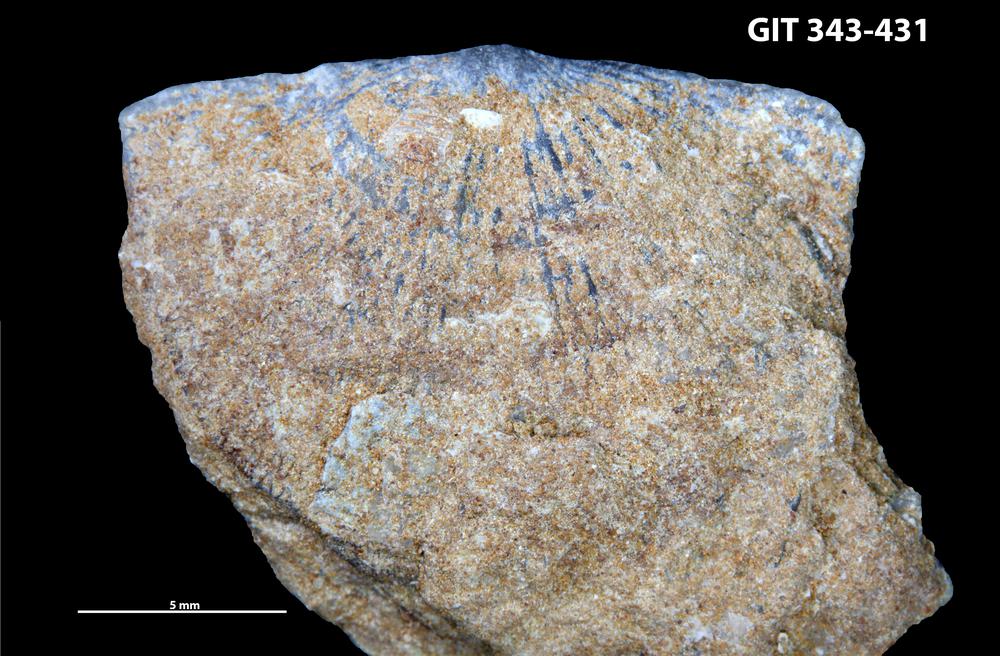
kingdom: Animalia
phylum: Brachiopoda
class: Rhynchonellata
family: Clitambonitidae
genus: Clitambonites
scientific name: Clitambonites squamatus
